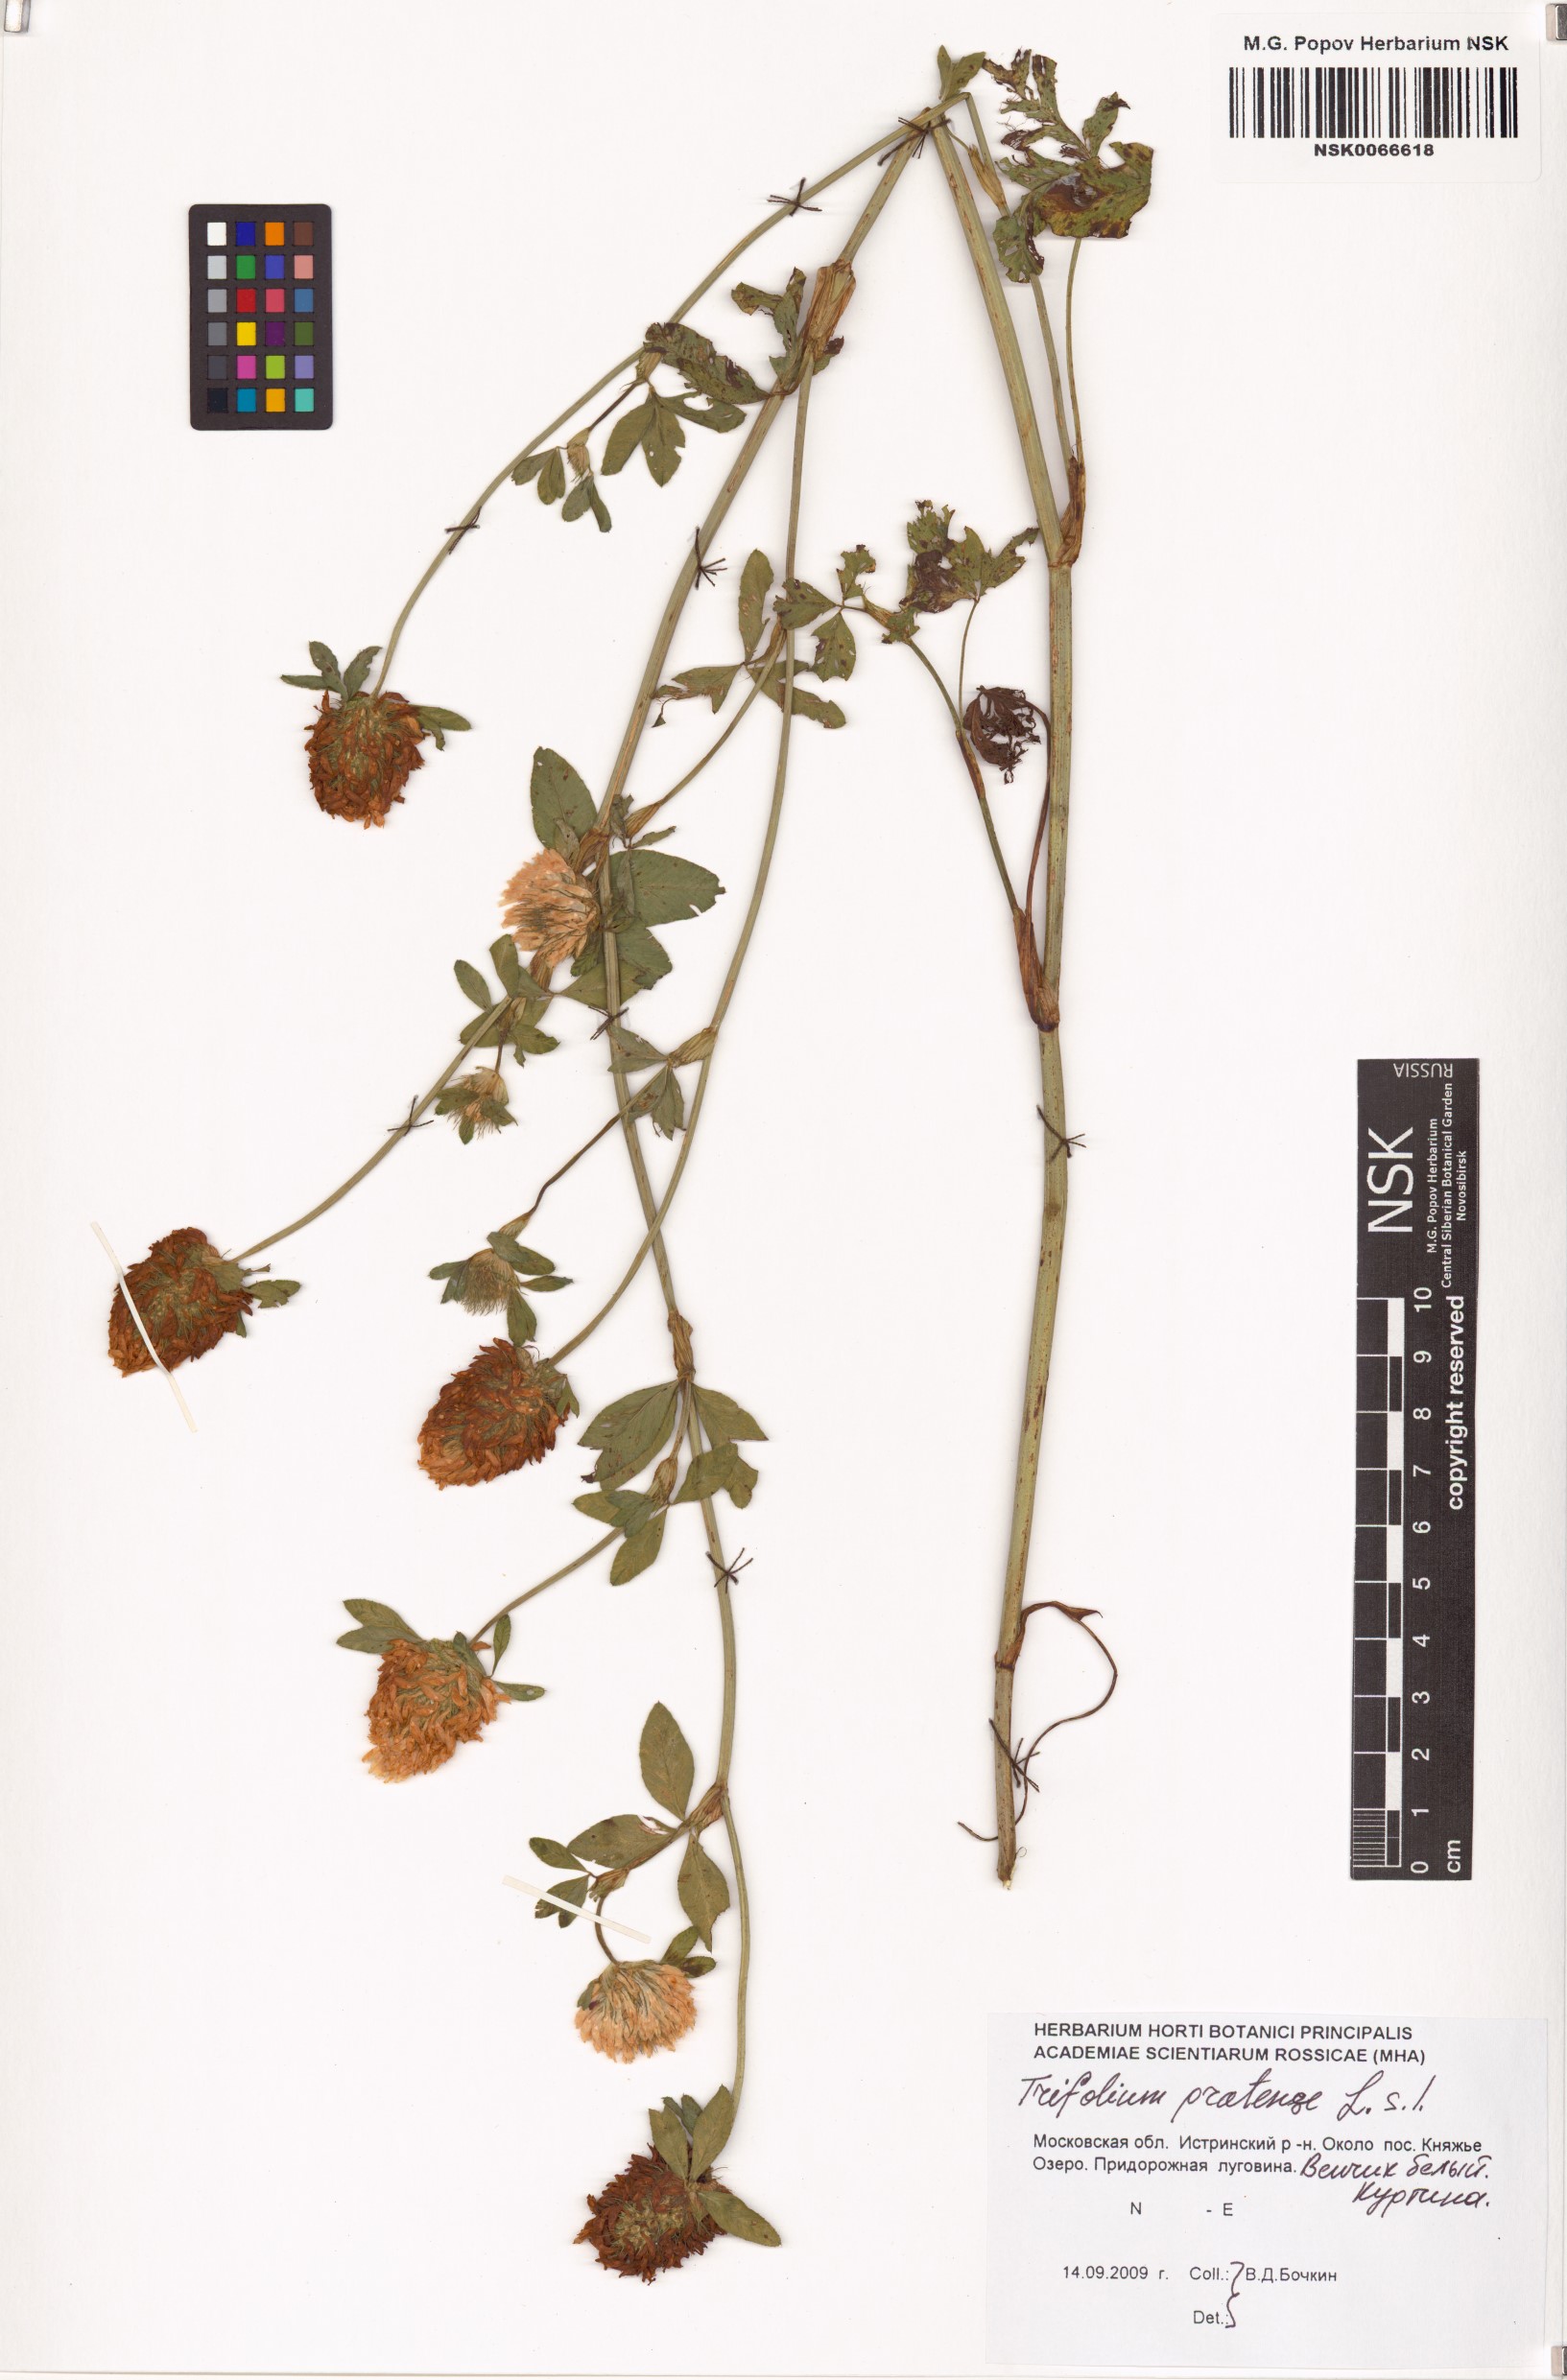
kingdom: Plantae
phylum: Tracheophyta
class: Magnoliopsida
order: Fabales
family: Fabaceae
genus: Trifolium
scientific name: Trifolium pratense
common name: Red clover
